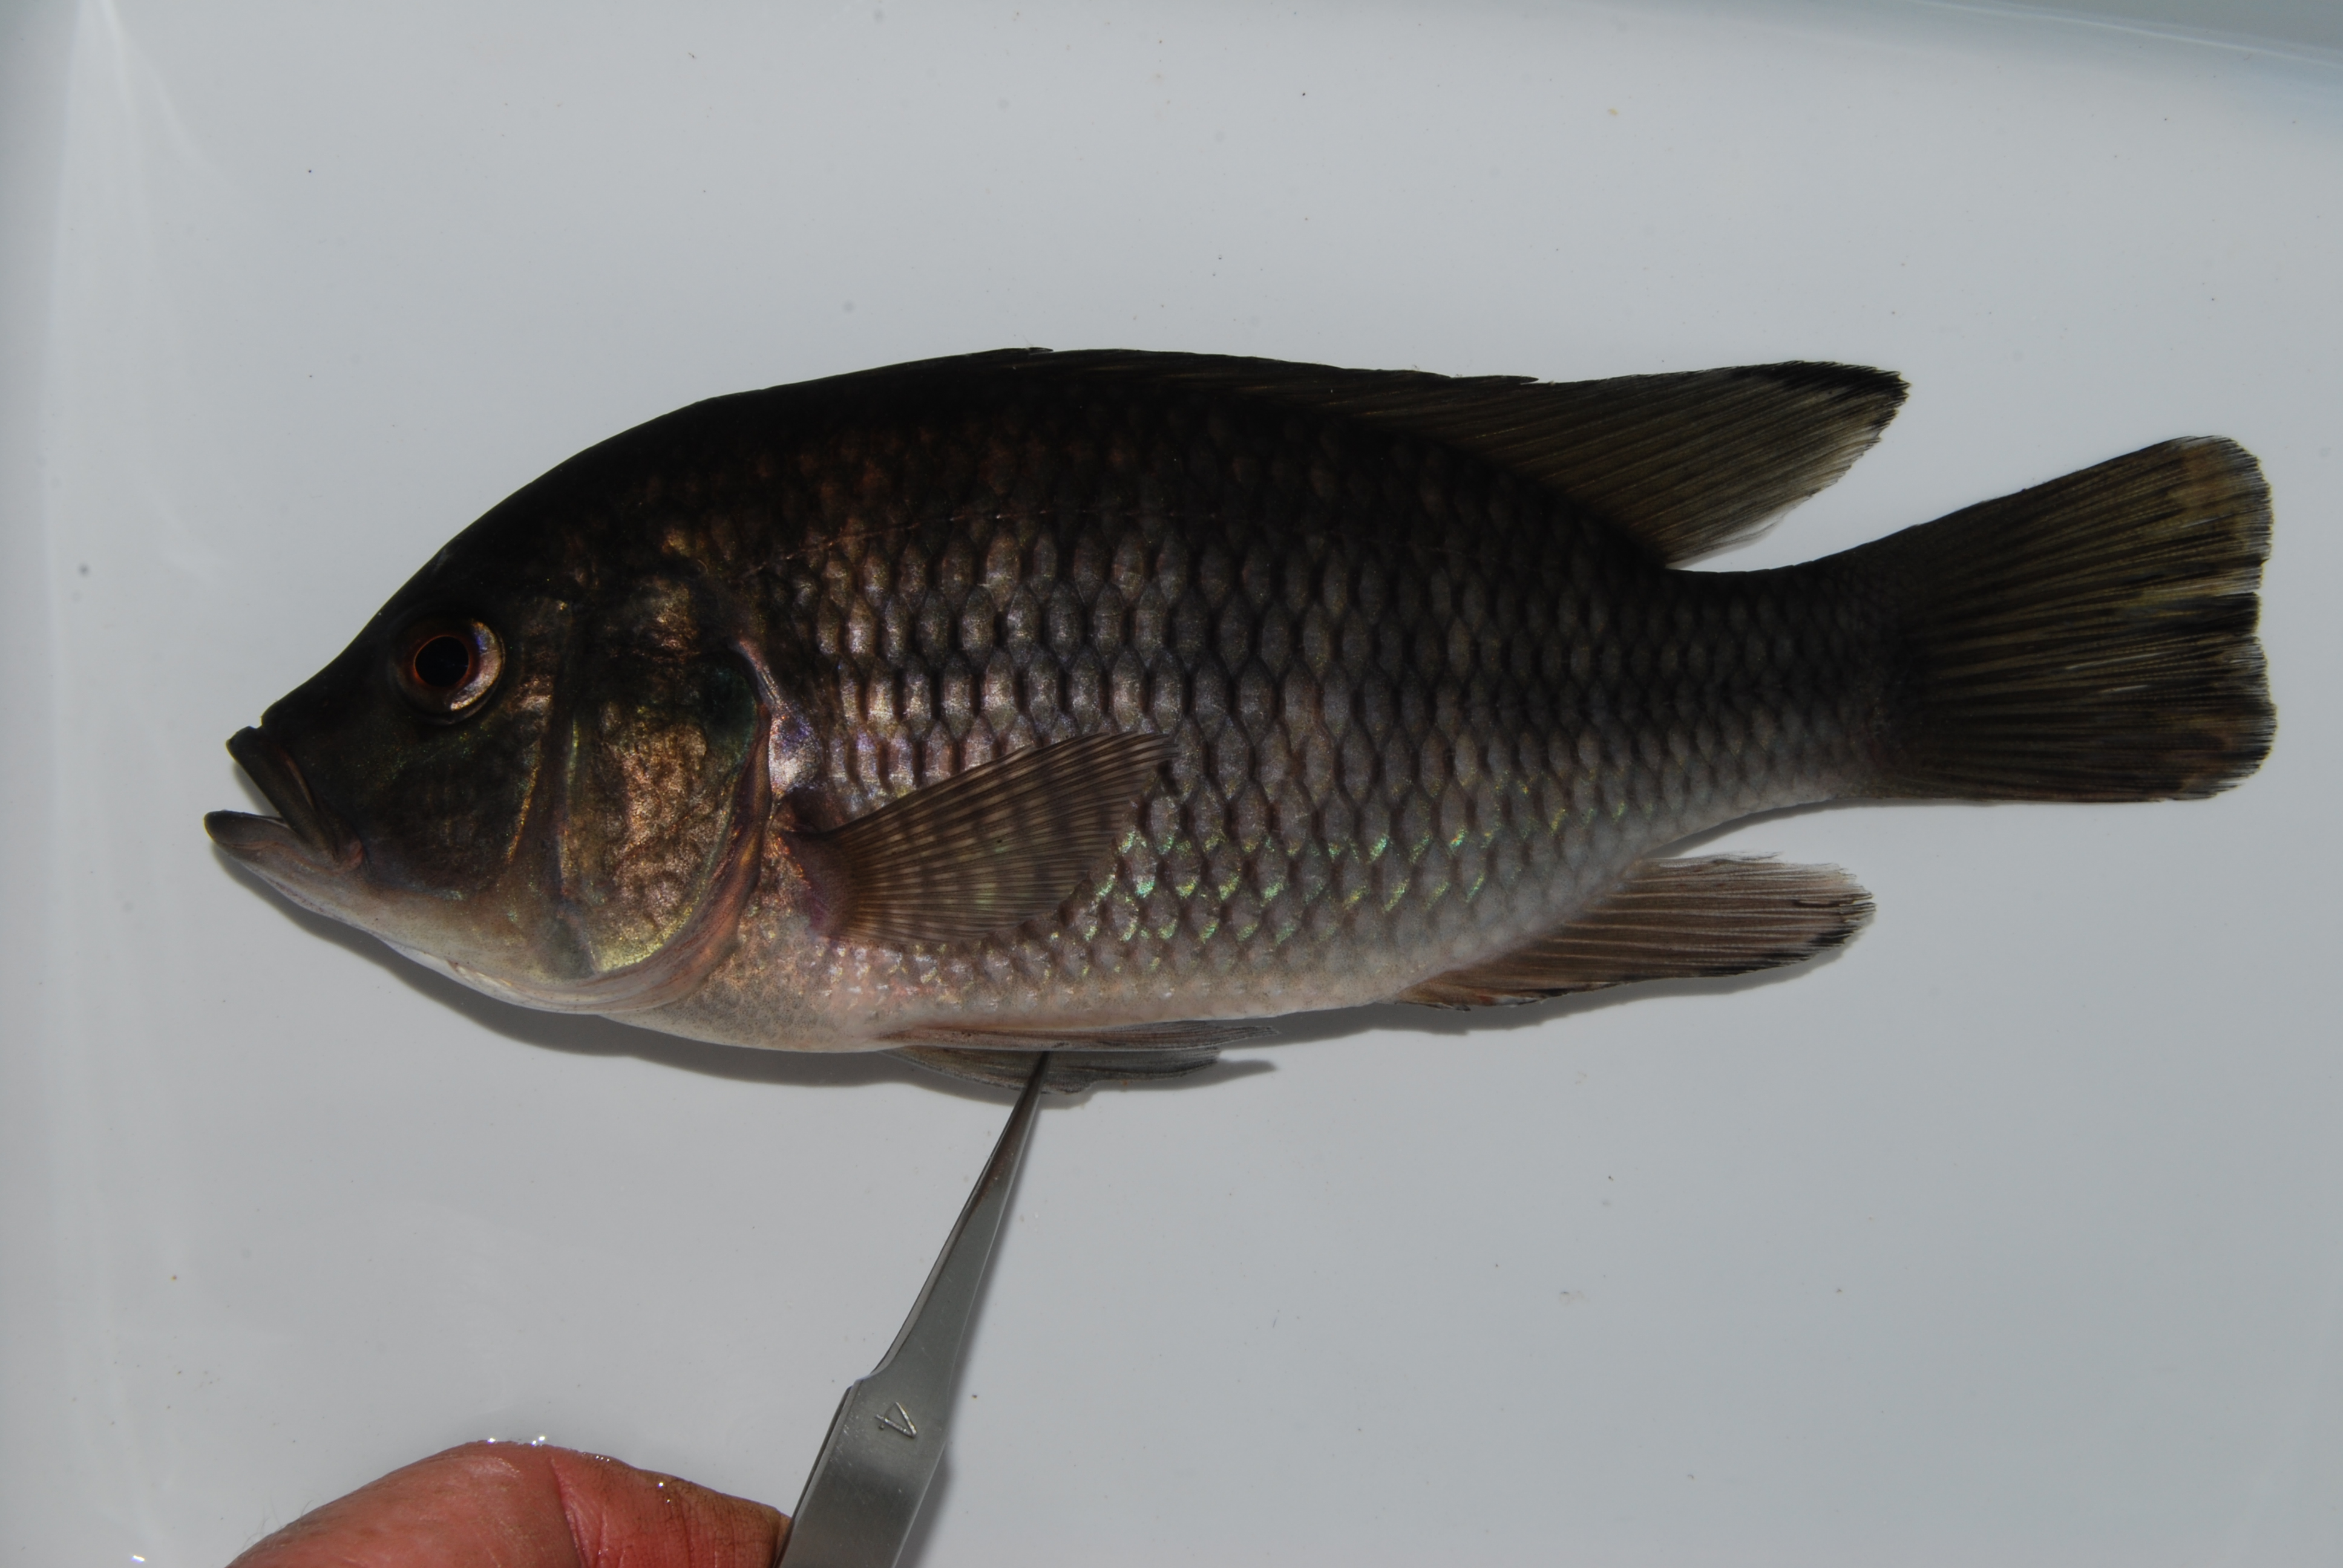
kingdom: Animalia
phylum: Chordata
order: Perciformes
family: Cichlidae
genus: Sargochromis
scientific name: Sargochromis giardi
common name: Pink happy
